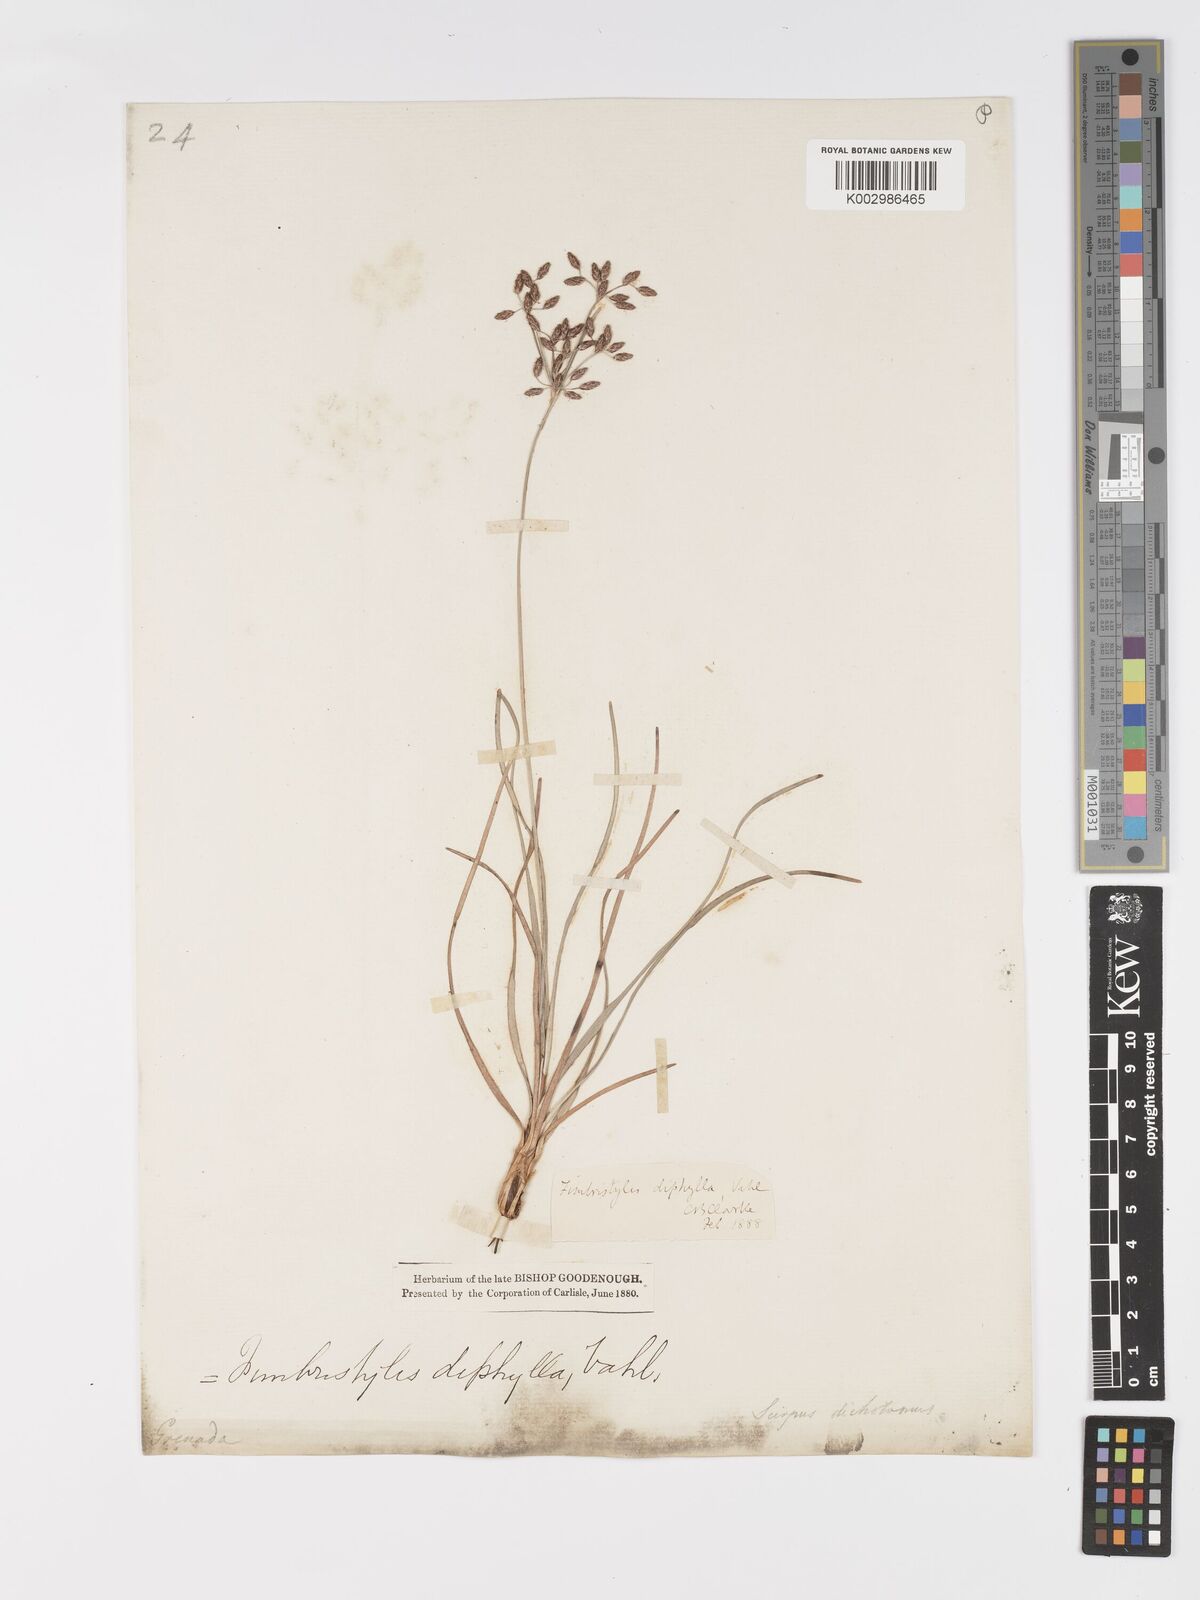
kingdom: Plantae
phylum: Tracheophyta
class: Liliopsida
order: Poales
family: Cyperaceae
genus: Fimbristylis
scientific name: Fimbristylis dichotoma
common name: Forked fimbry
